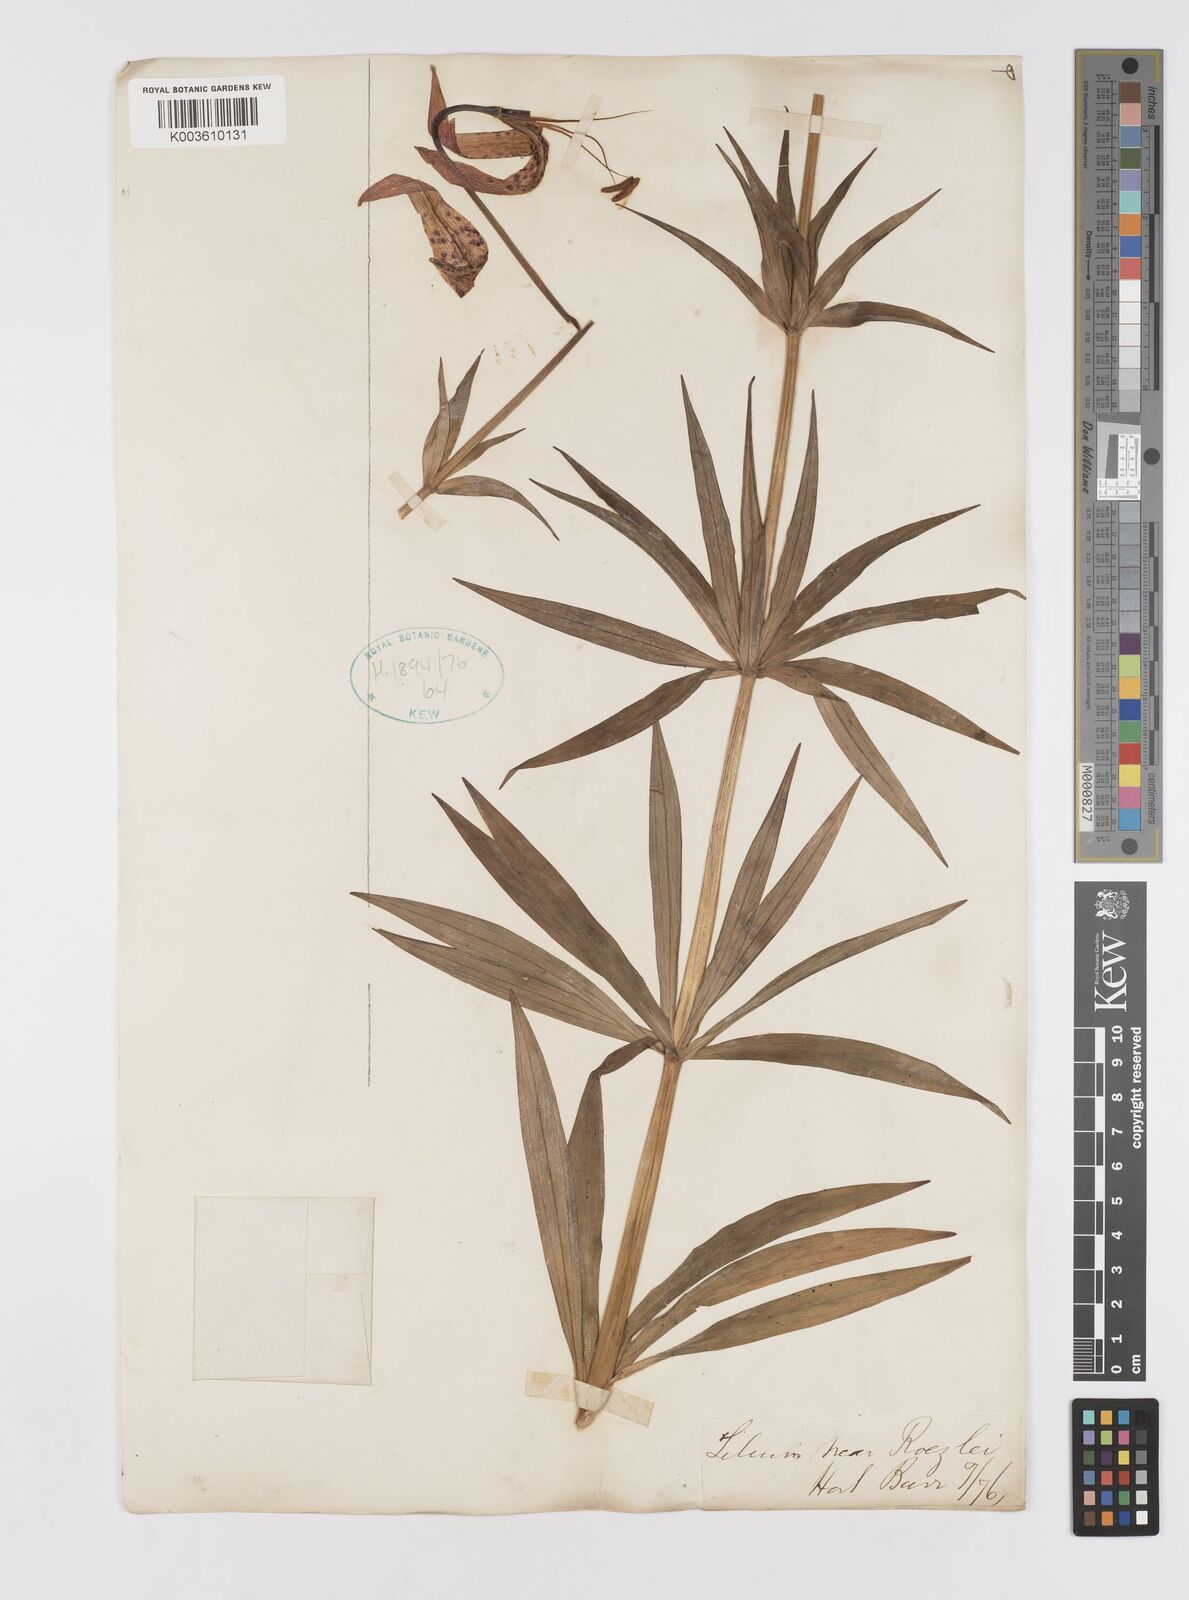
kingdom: Plantae
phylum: Tracheophyta
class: Liliopsida
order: Liliales
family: Liliaceae
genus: Lilium
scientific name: Lilium occidentale
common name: Eureka lily
